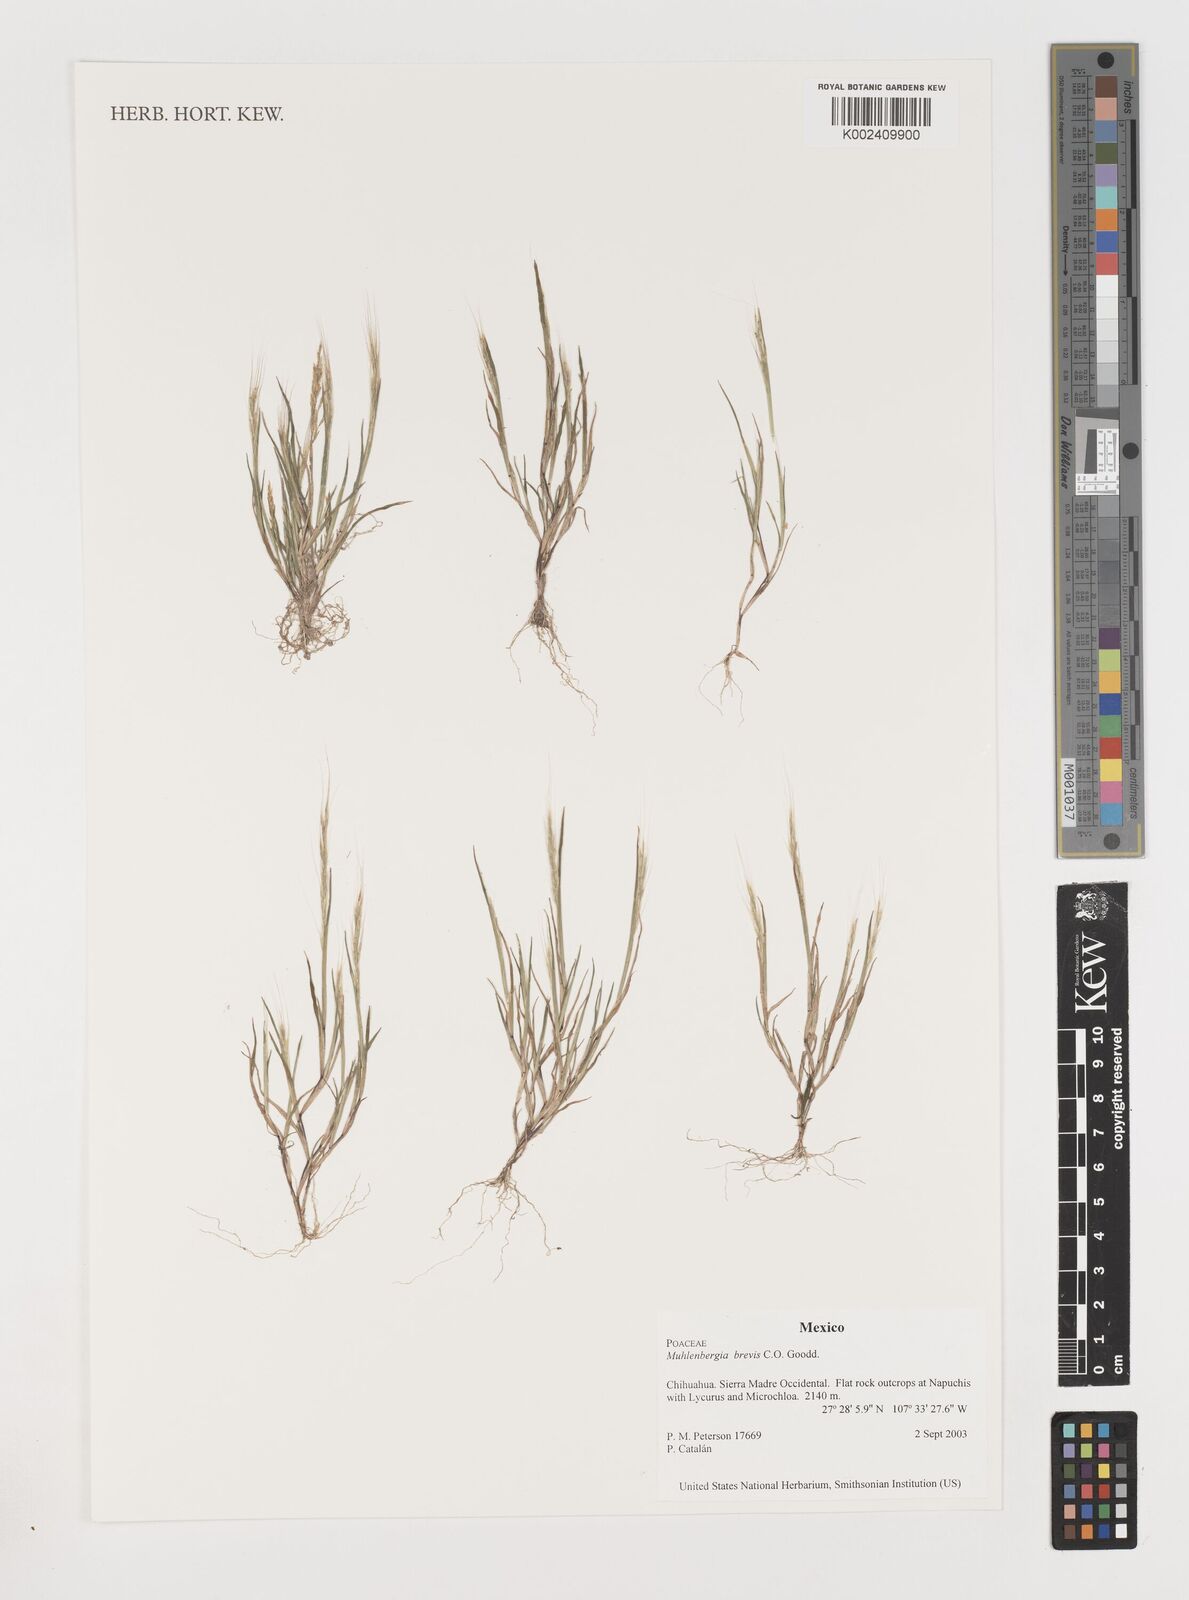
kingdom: Plantae
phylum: Tracheophyta
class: Liliopsida
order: Poales
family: Poaceae
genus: Muhlenbergia
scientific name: Muhlenbergia brevis
